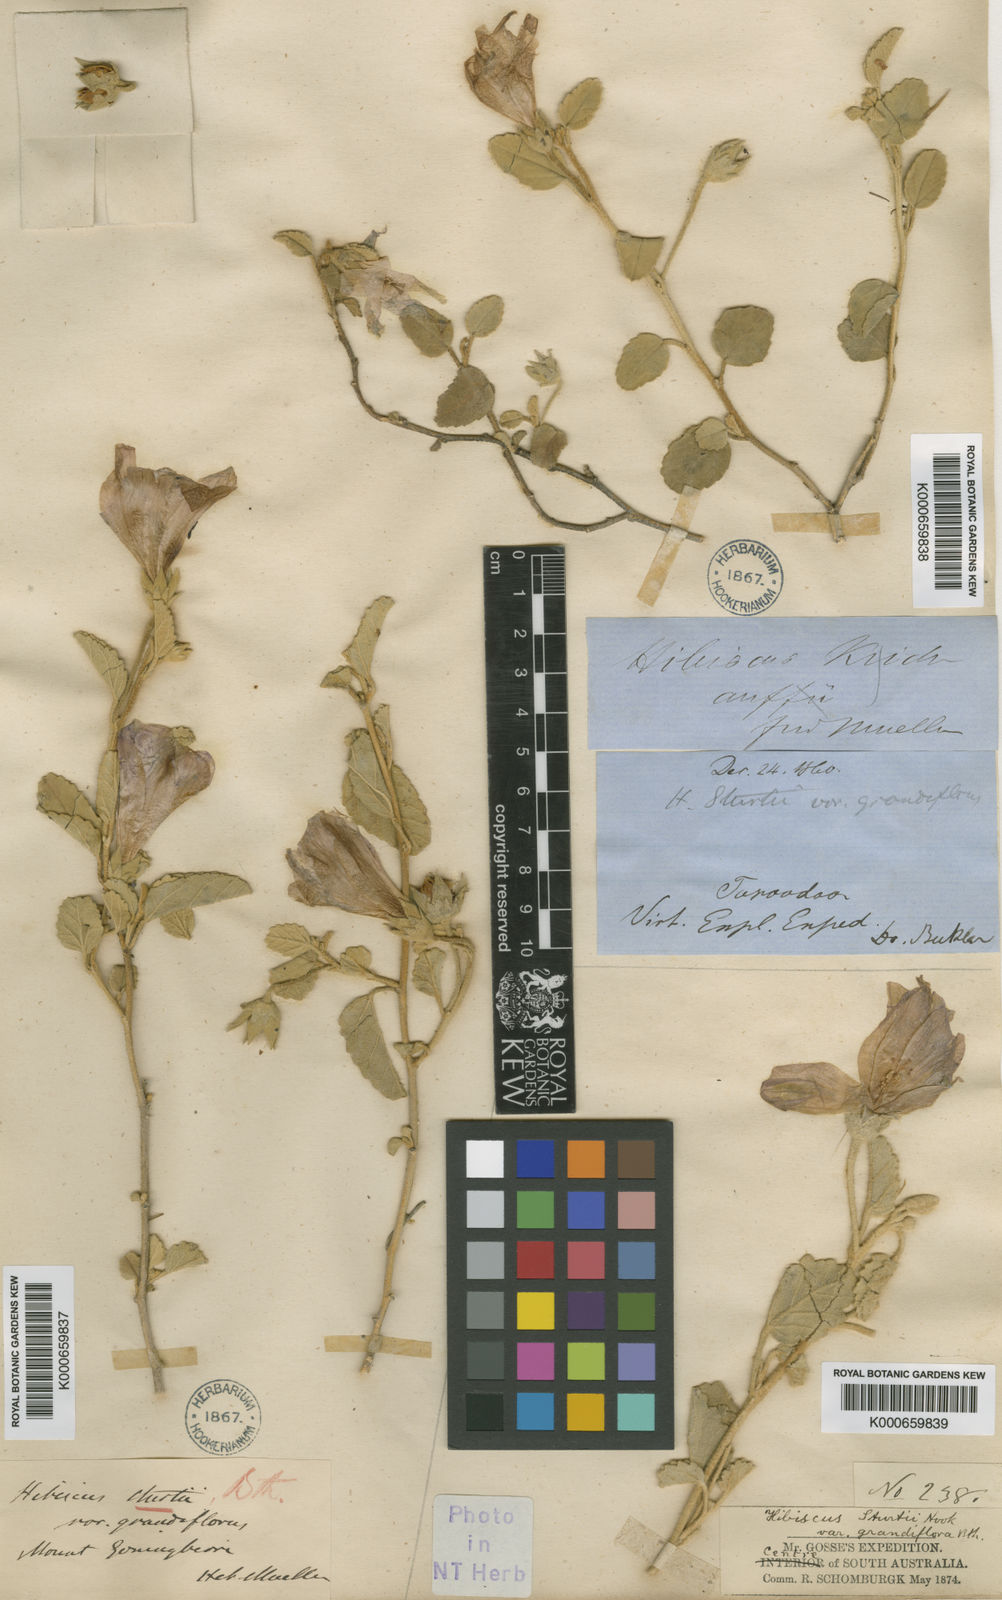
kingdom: Plantae
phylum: Tracheophyta
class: Magnoliopsida
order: Malvales
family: Malvaceae
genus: Hibiscus
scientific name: Hibiscus sturtii
